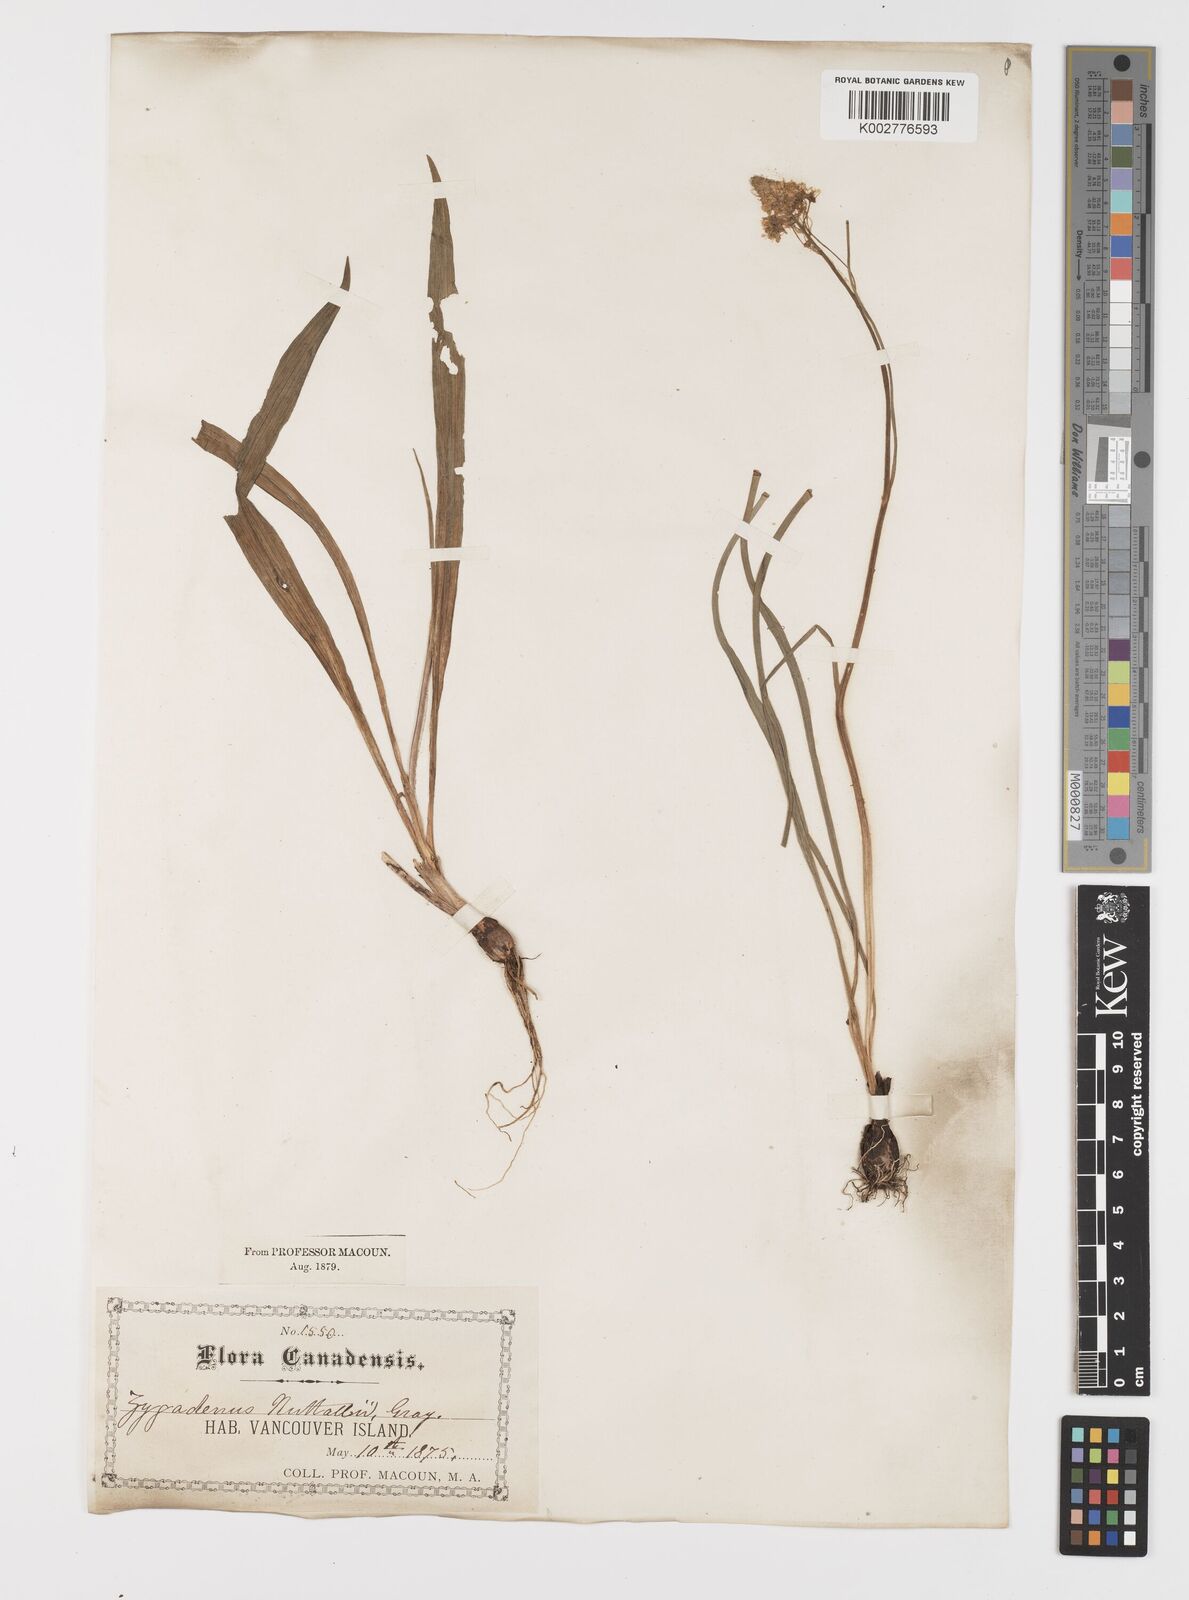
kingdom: Plantae
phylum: Tracheophyta
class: Liliopsida
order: Liliales
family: Melanthiaceae
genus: Toxicoscordion
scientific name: Toxicoscordion nuttallii
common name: Poison sego
